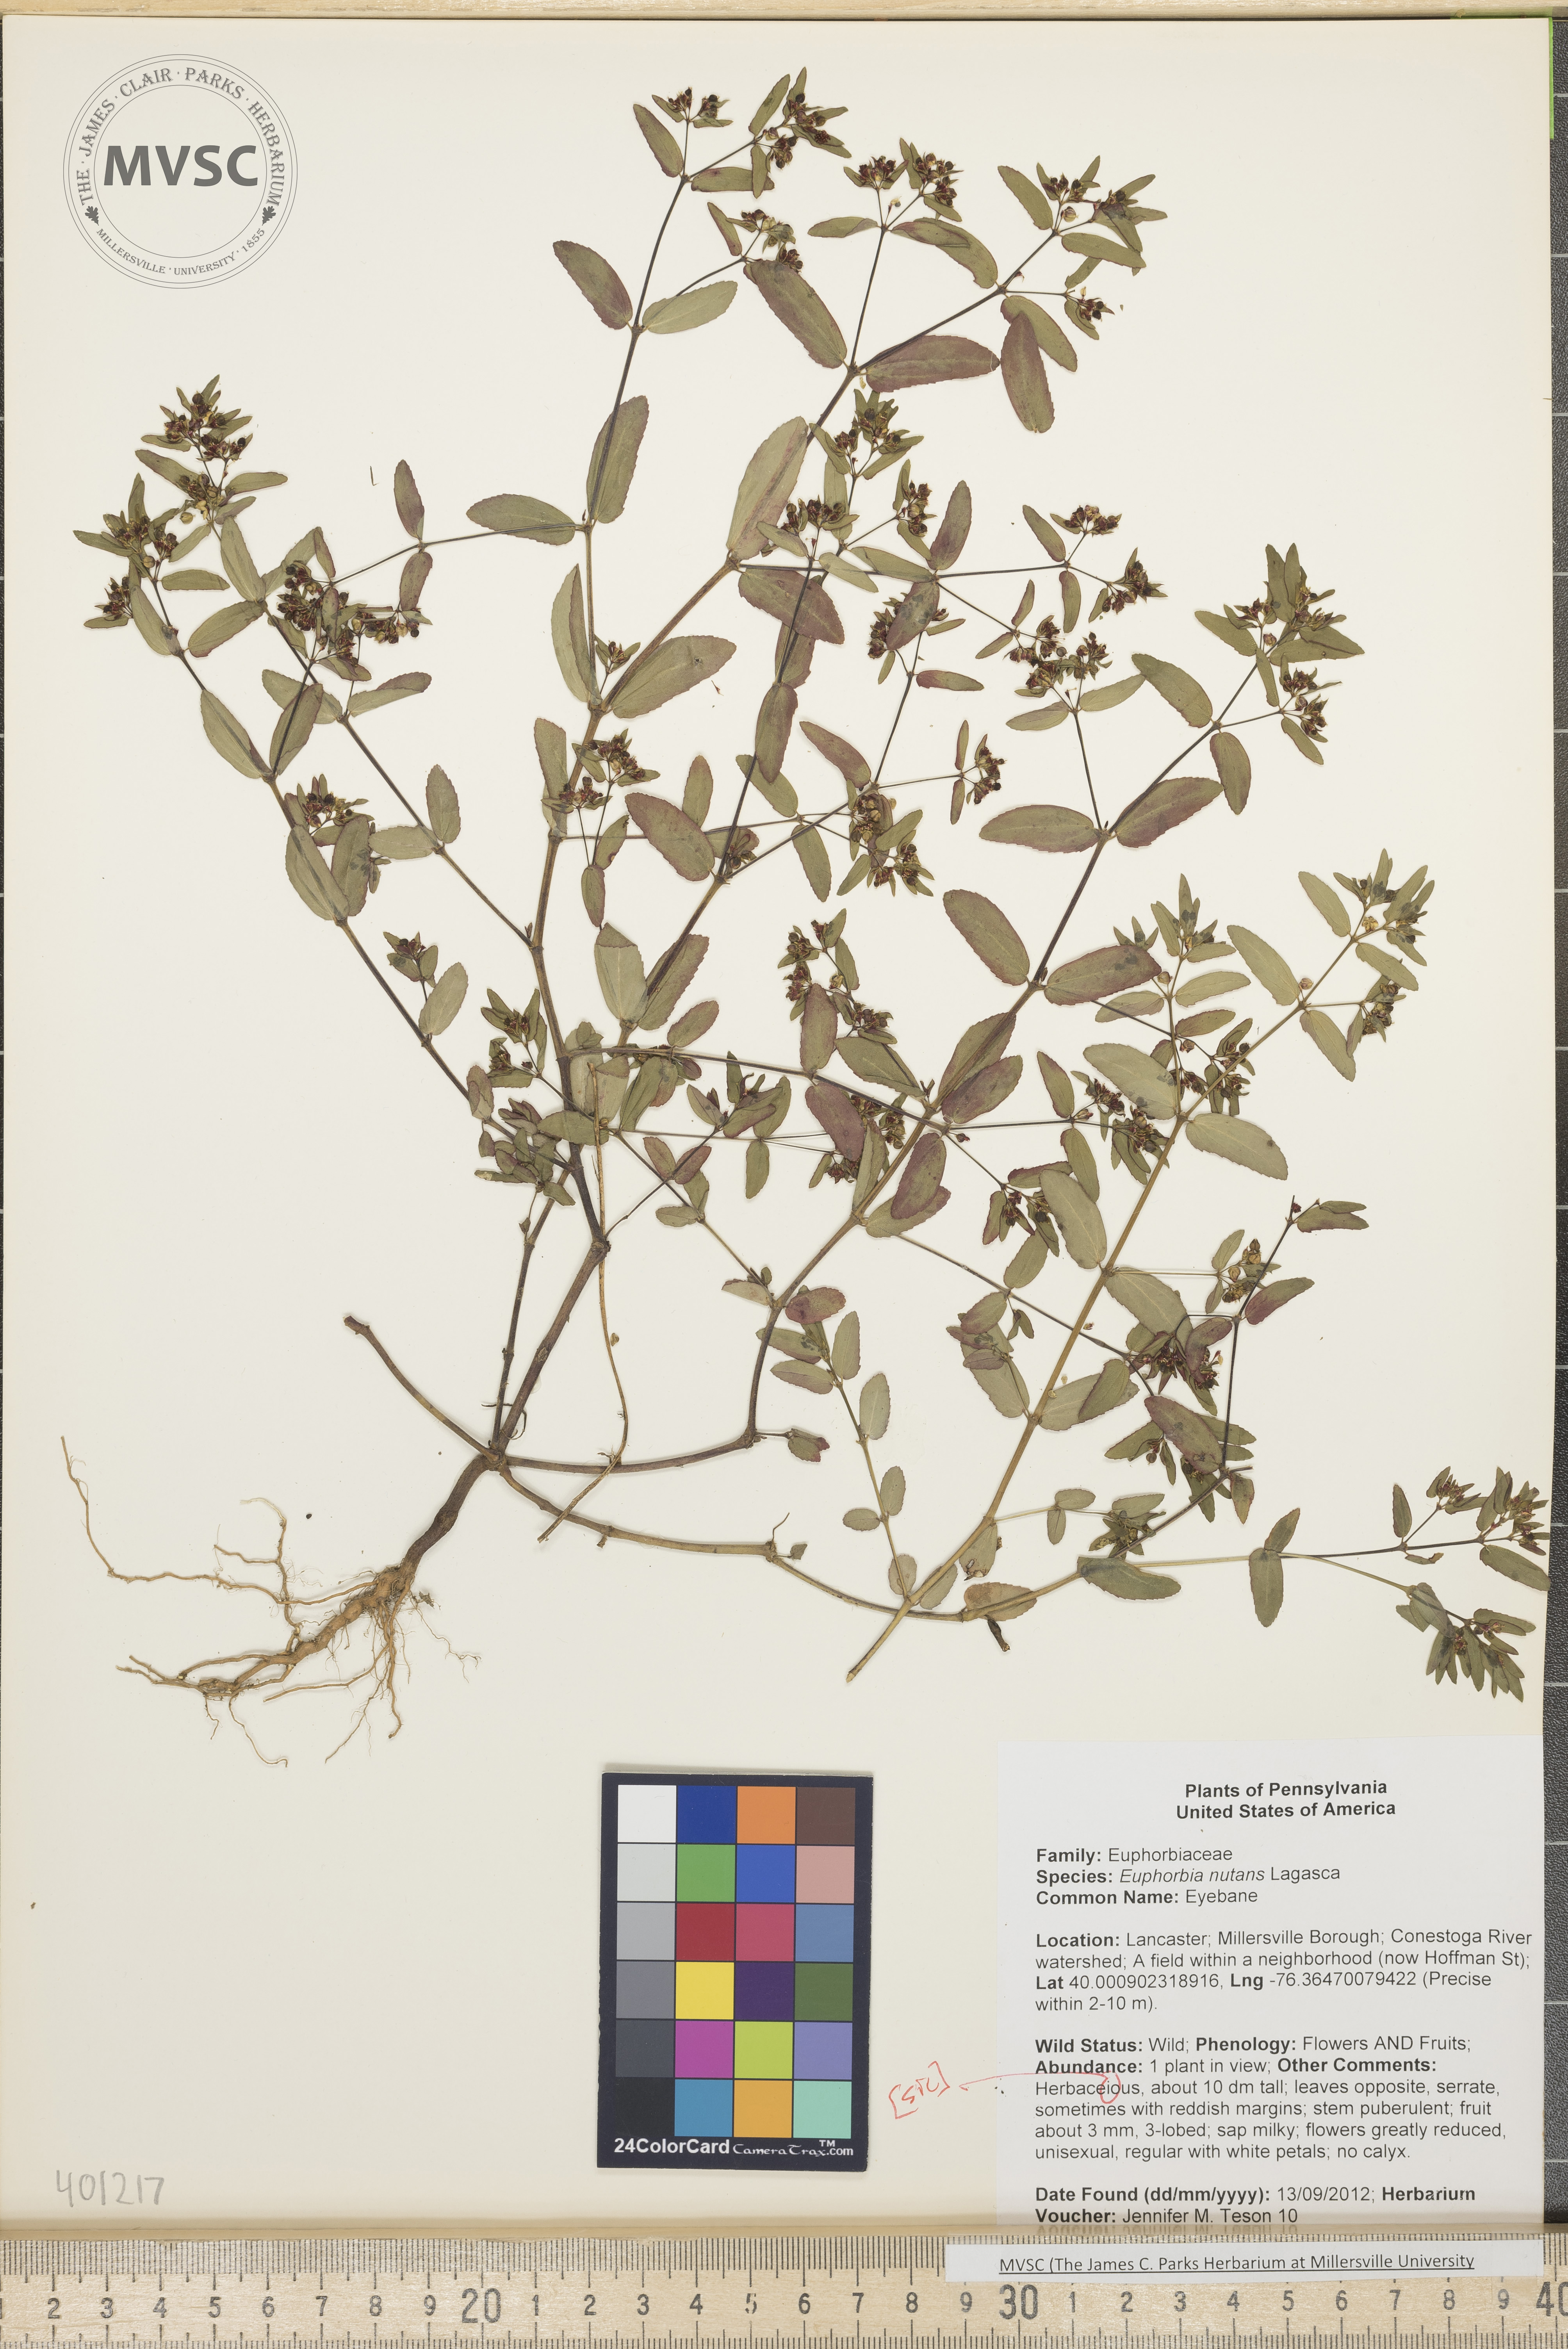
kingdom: Plantae
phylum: Tracheophyta
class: Magnoliopsida
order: Malpighiales
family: Euphorbiaceae
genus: Euphorbia
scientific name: Euphorbia nutans
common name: Eyebane
